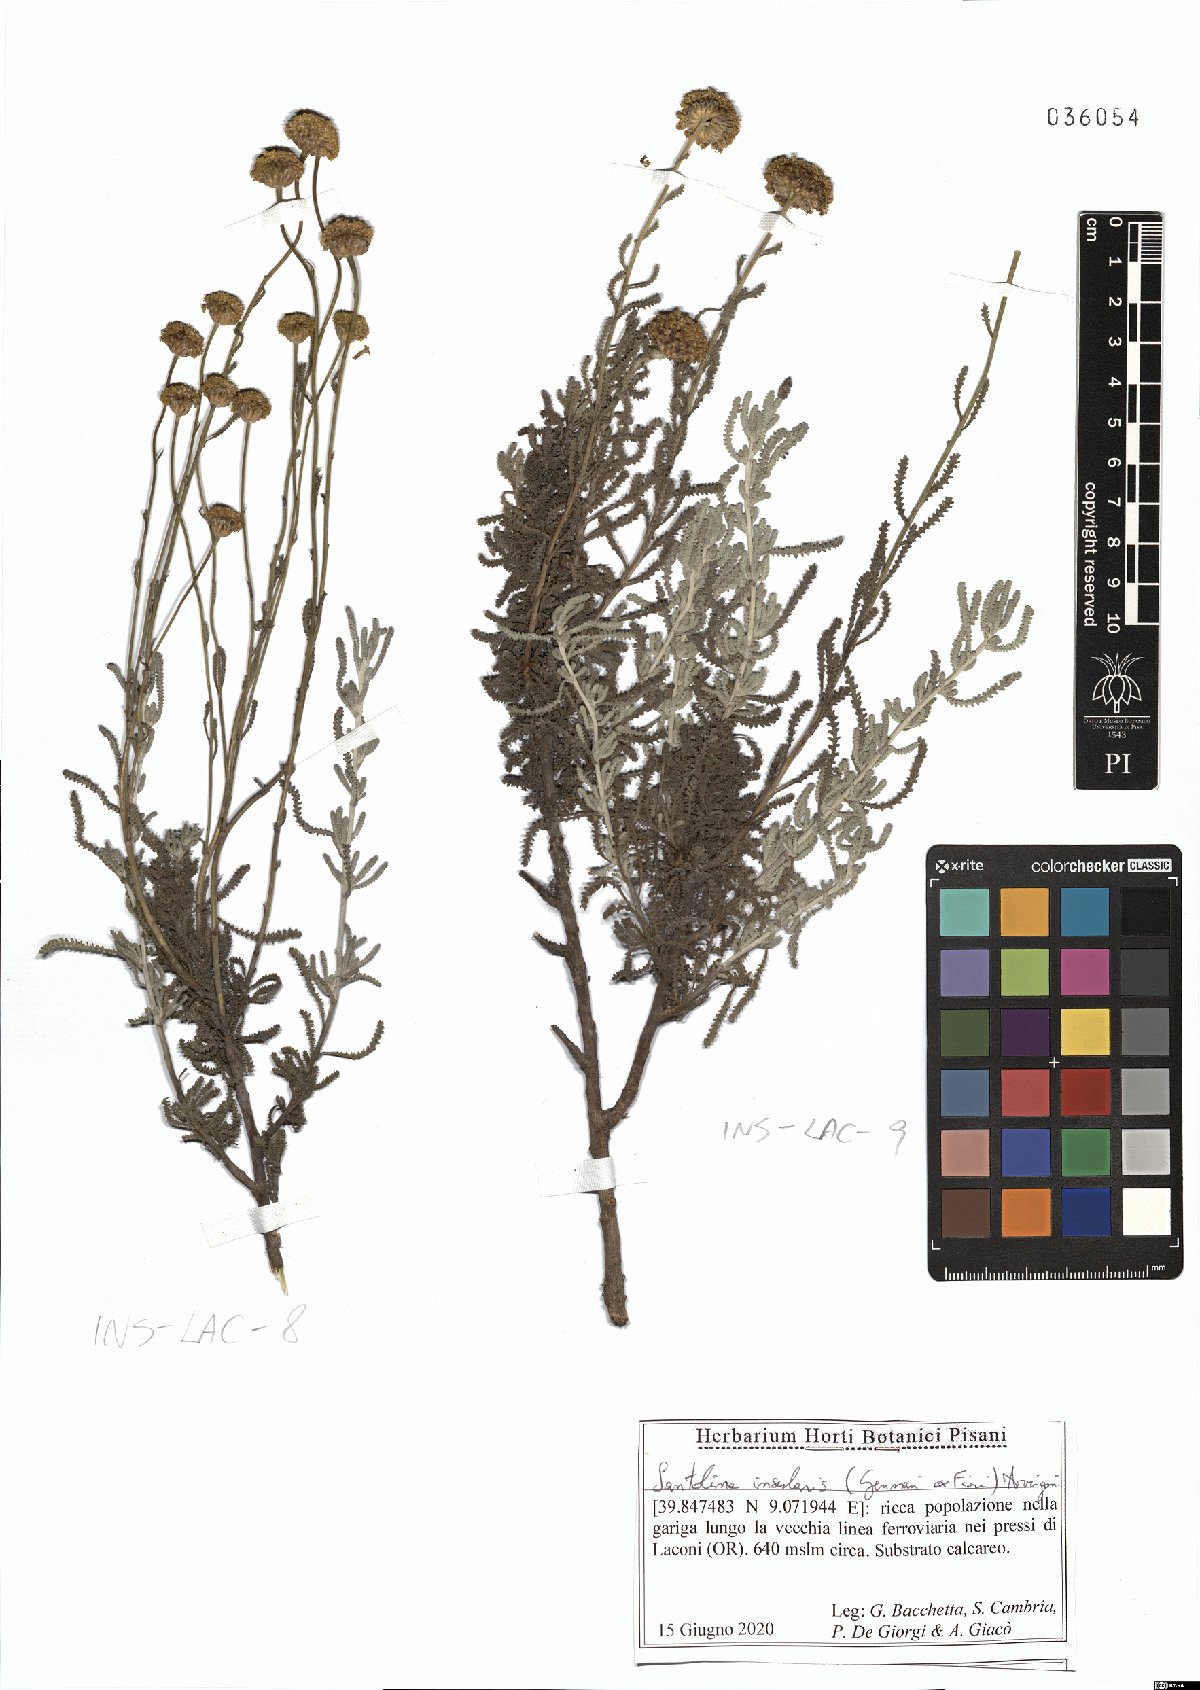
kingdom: Plantae
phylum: Tracheophyta
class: Magnoliopsida
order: Asterales
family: Asteraceae
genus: Santolina
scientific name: Santolina insularis
